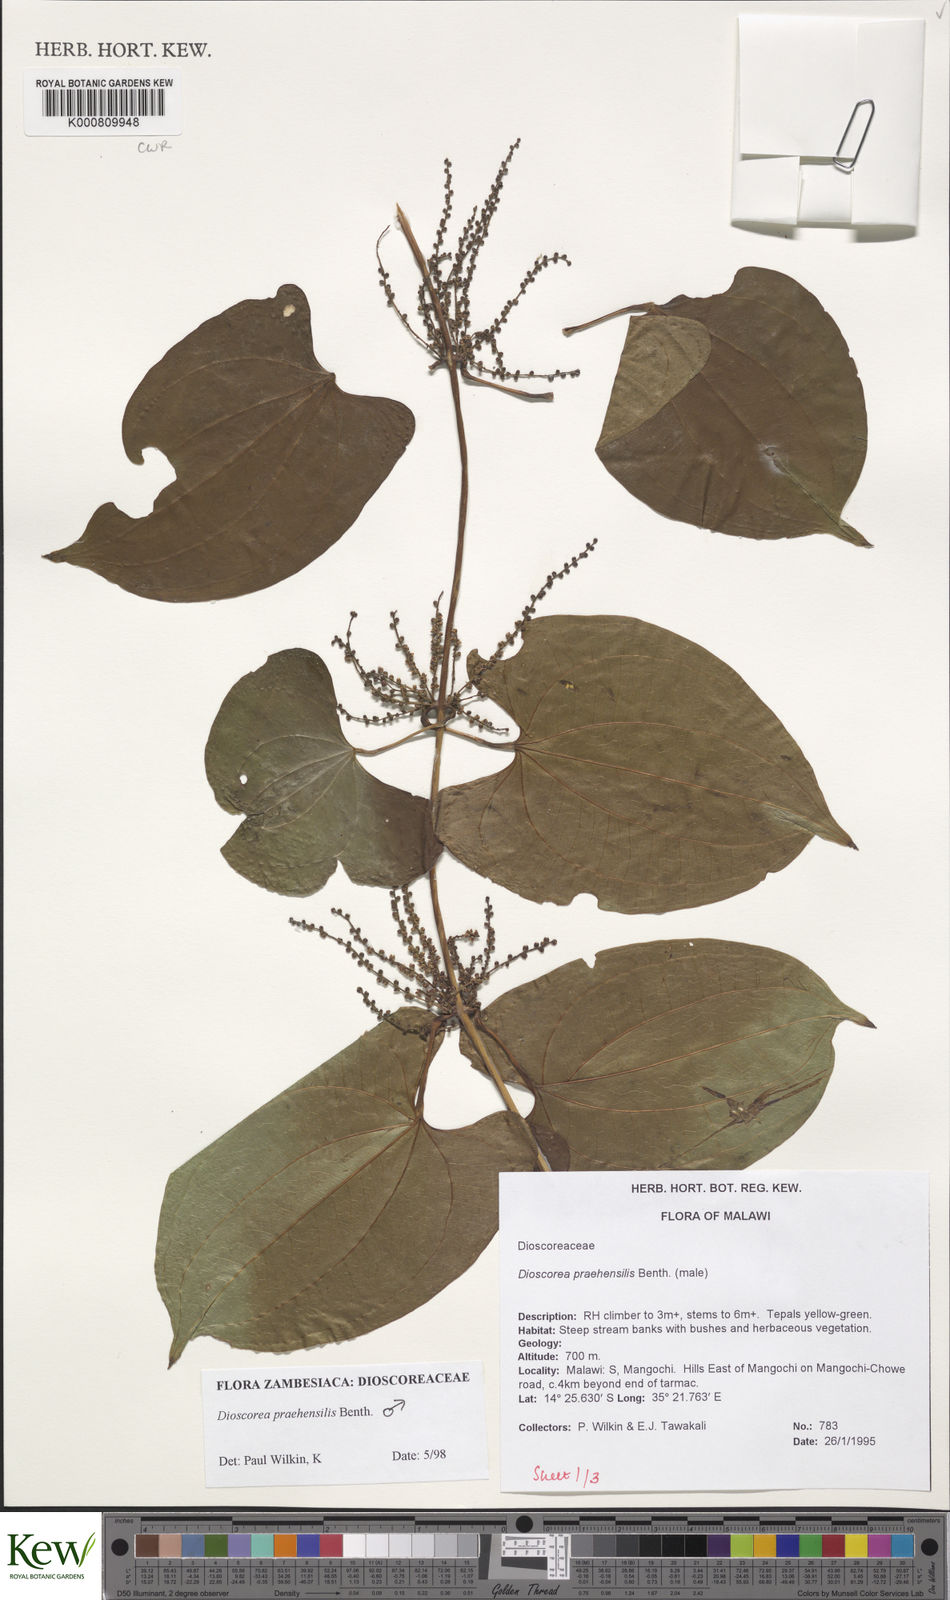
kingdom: Plantae
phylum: Tracheophyta
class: Liliopsida
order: Dioscoreales
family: Dioscoreaceae
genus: Dioscorea
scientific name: Dioscorea praehensilis
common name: Bush yam
